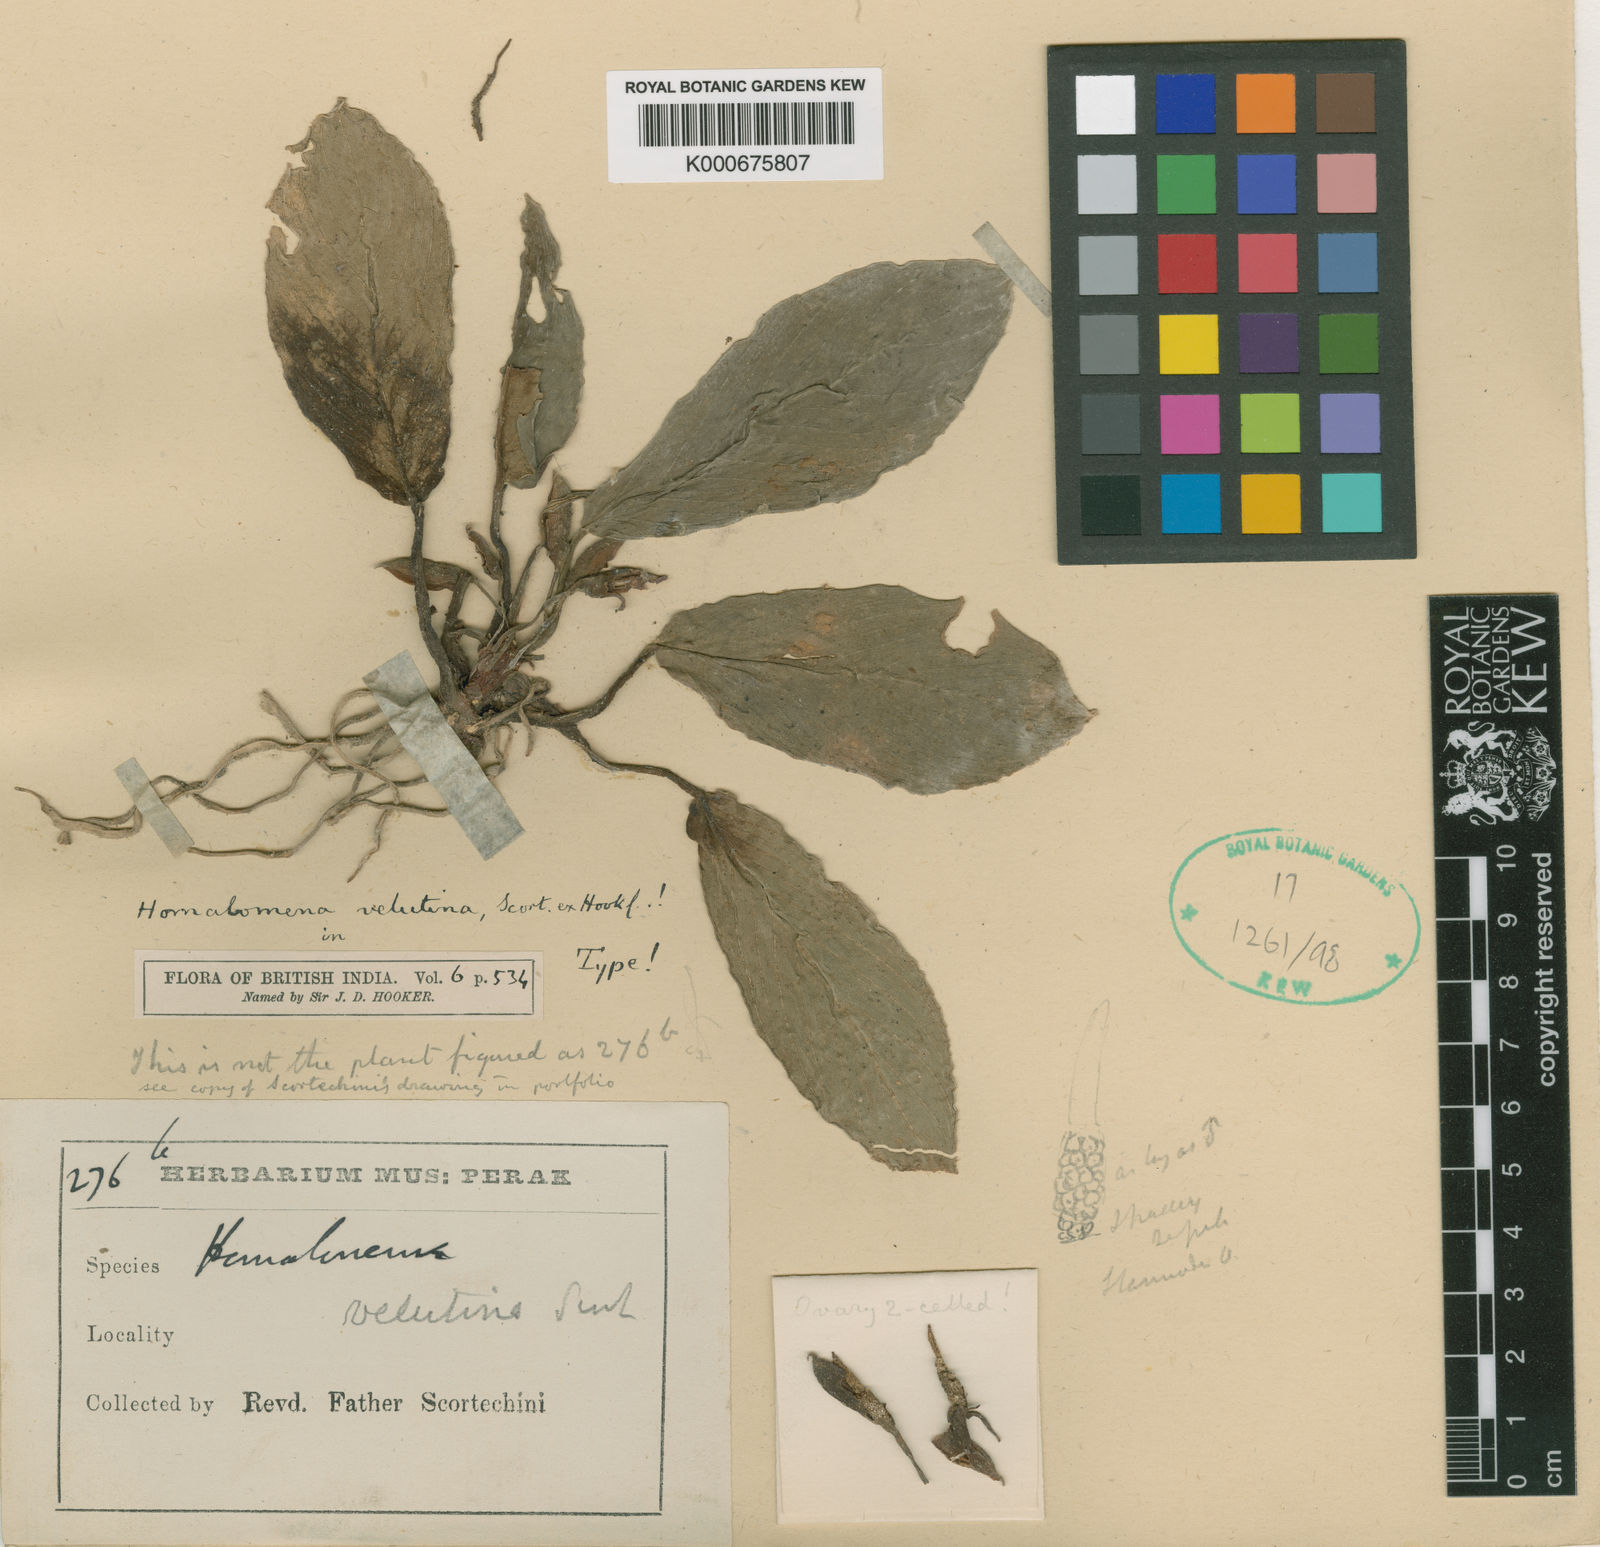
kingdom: Plantae
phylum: Tracheophyta
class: Liliopsida
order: Alismatales
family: Araceae
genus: Homalomena
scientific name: Homalomena humilis
